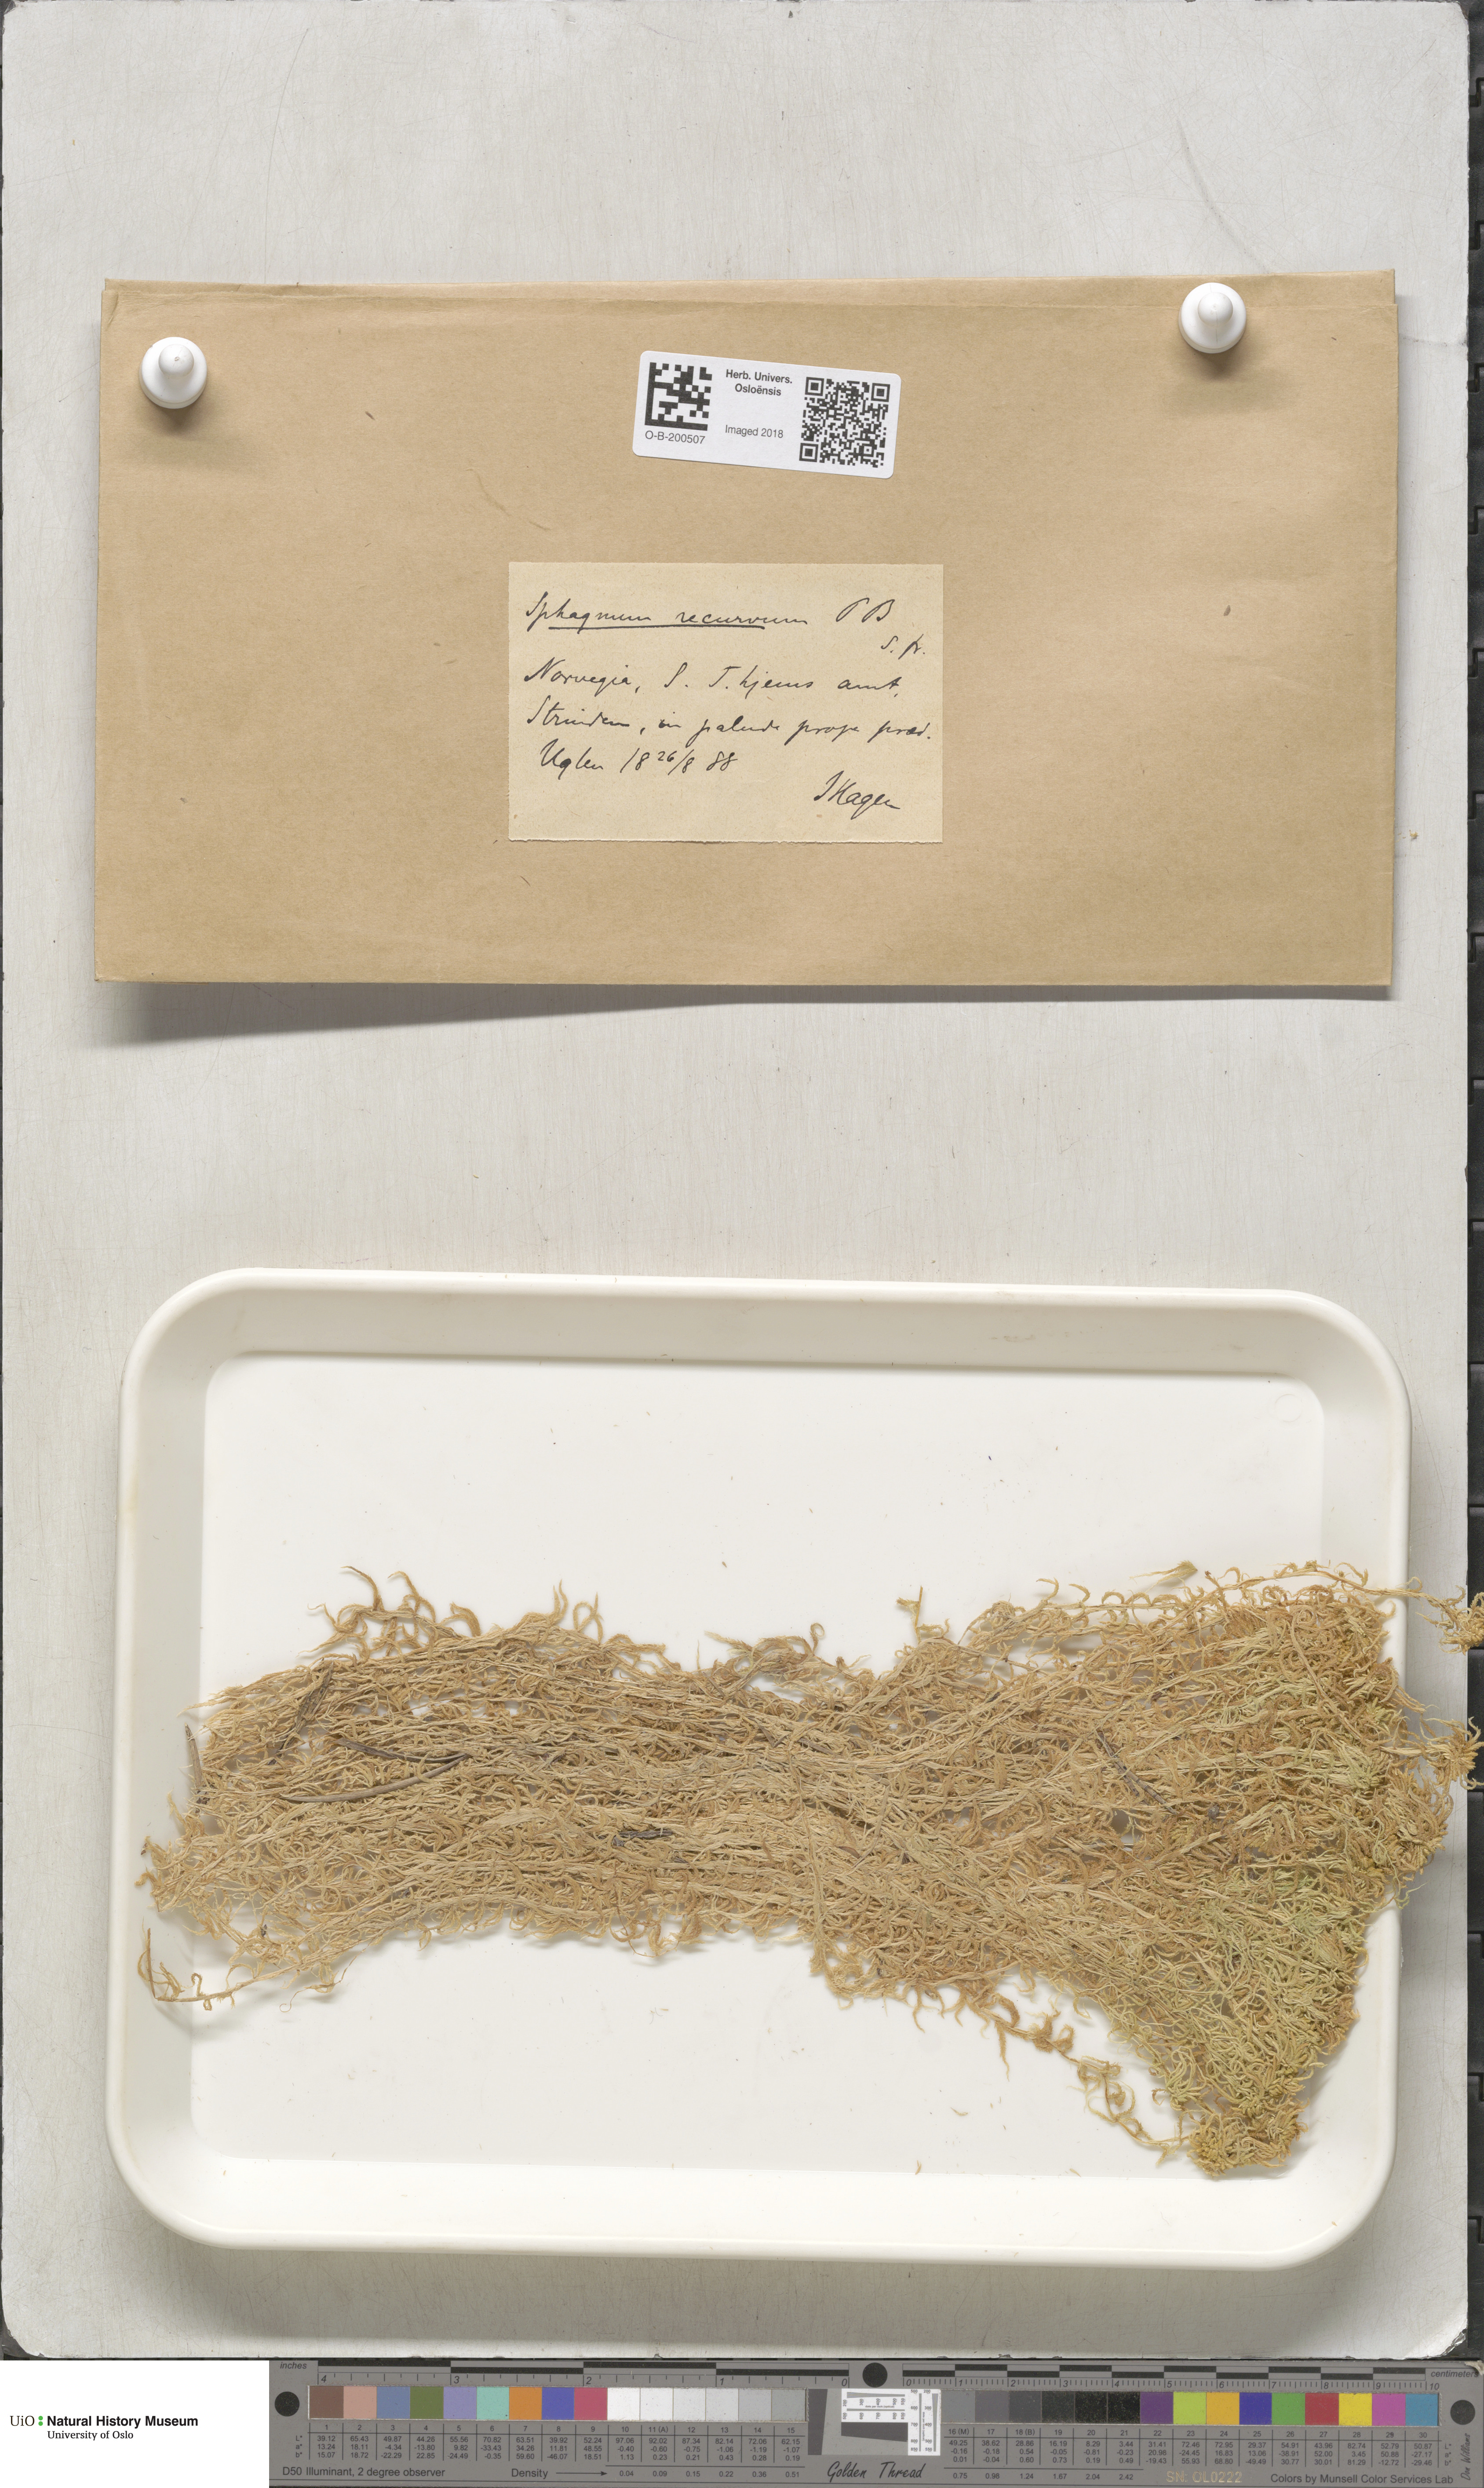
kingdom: Plantae
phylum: Bryophyta
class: Sphagnopsida
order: Sphagnales
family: Sphagnaceae
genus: Sphagnum
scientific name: Sphagnum fallax
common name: Flat-top peat moss
